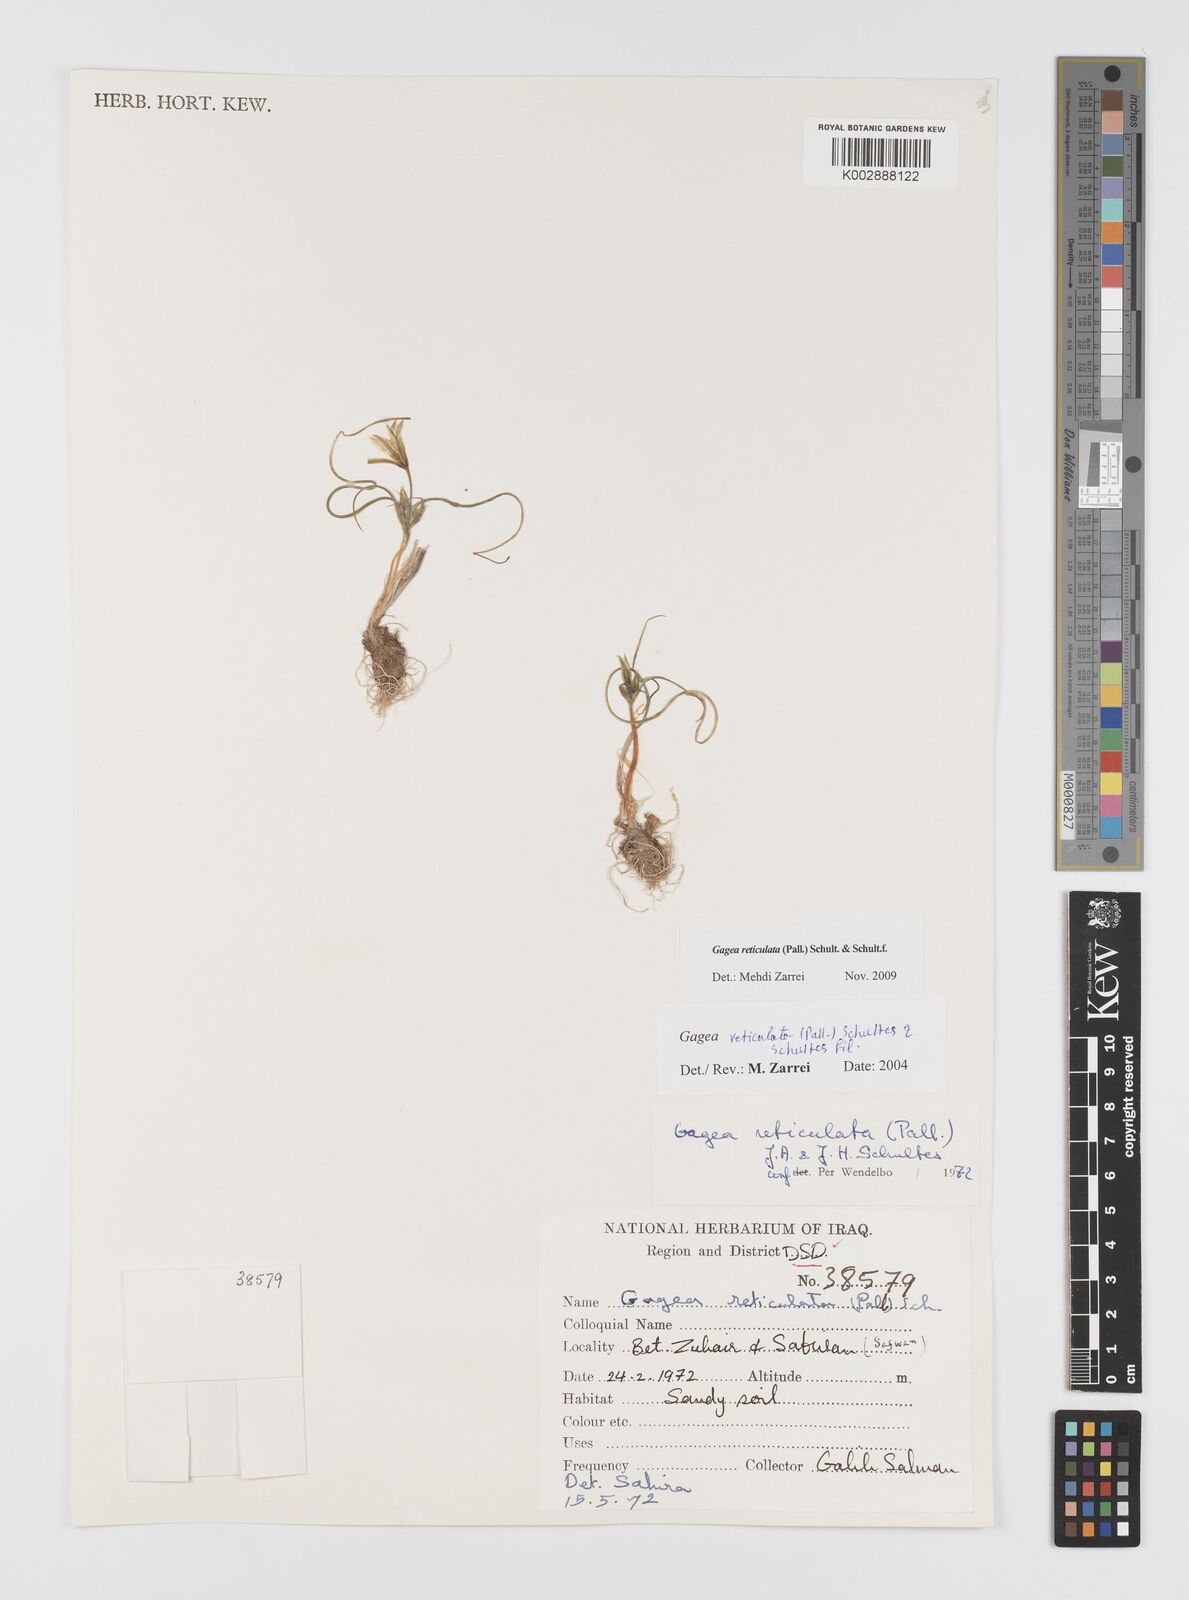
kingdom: Plantae
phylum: Tracheophyta
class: Liliopsida
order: Liliales
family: Liliaceae
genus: Gagea
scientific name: Gagea reticulata
